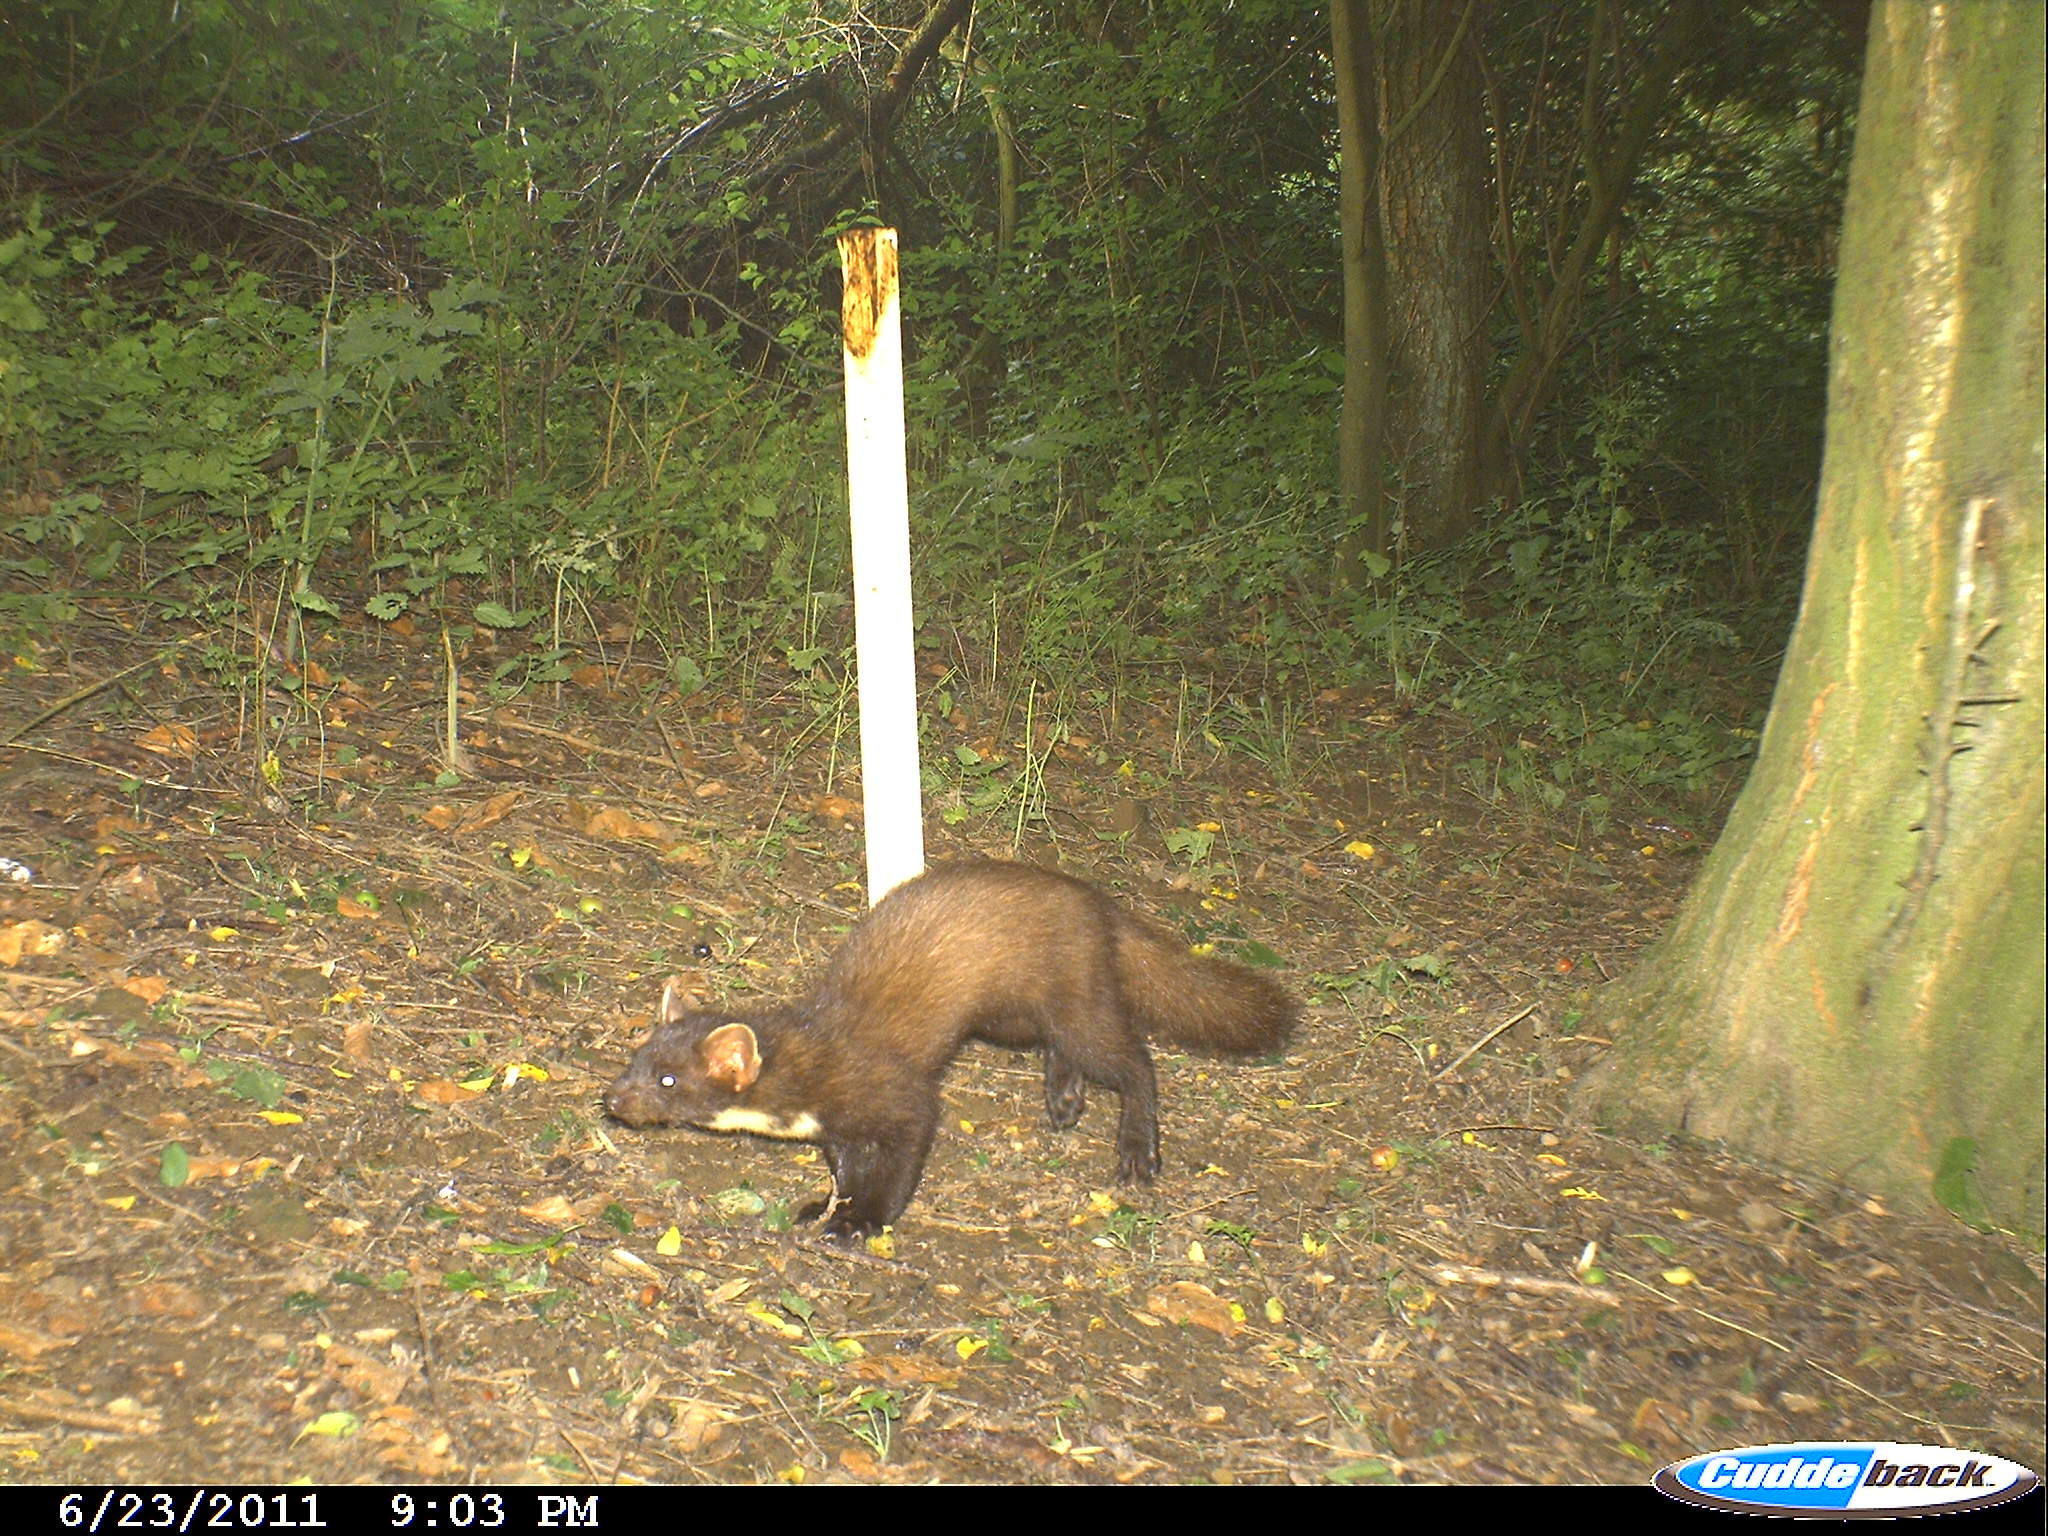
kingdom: Animalia
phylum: Chordata
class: Mammalia
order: Carnivora
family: Mustelidae
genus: Martes
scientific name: Martes martes
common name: European pine marten
